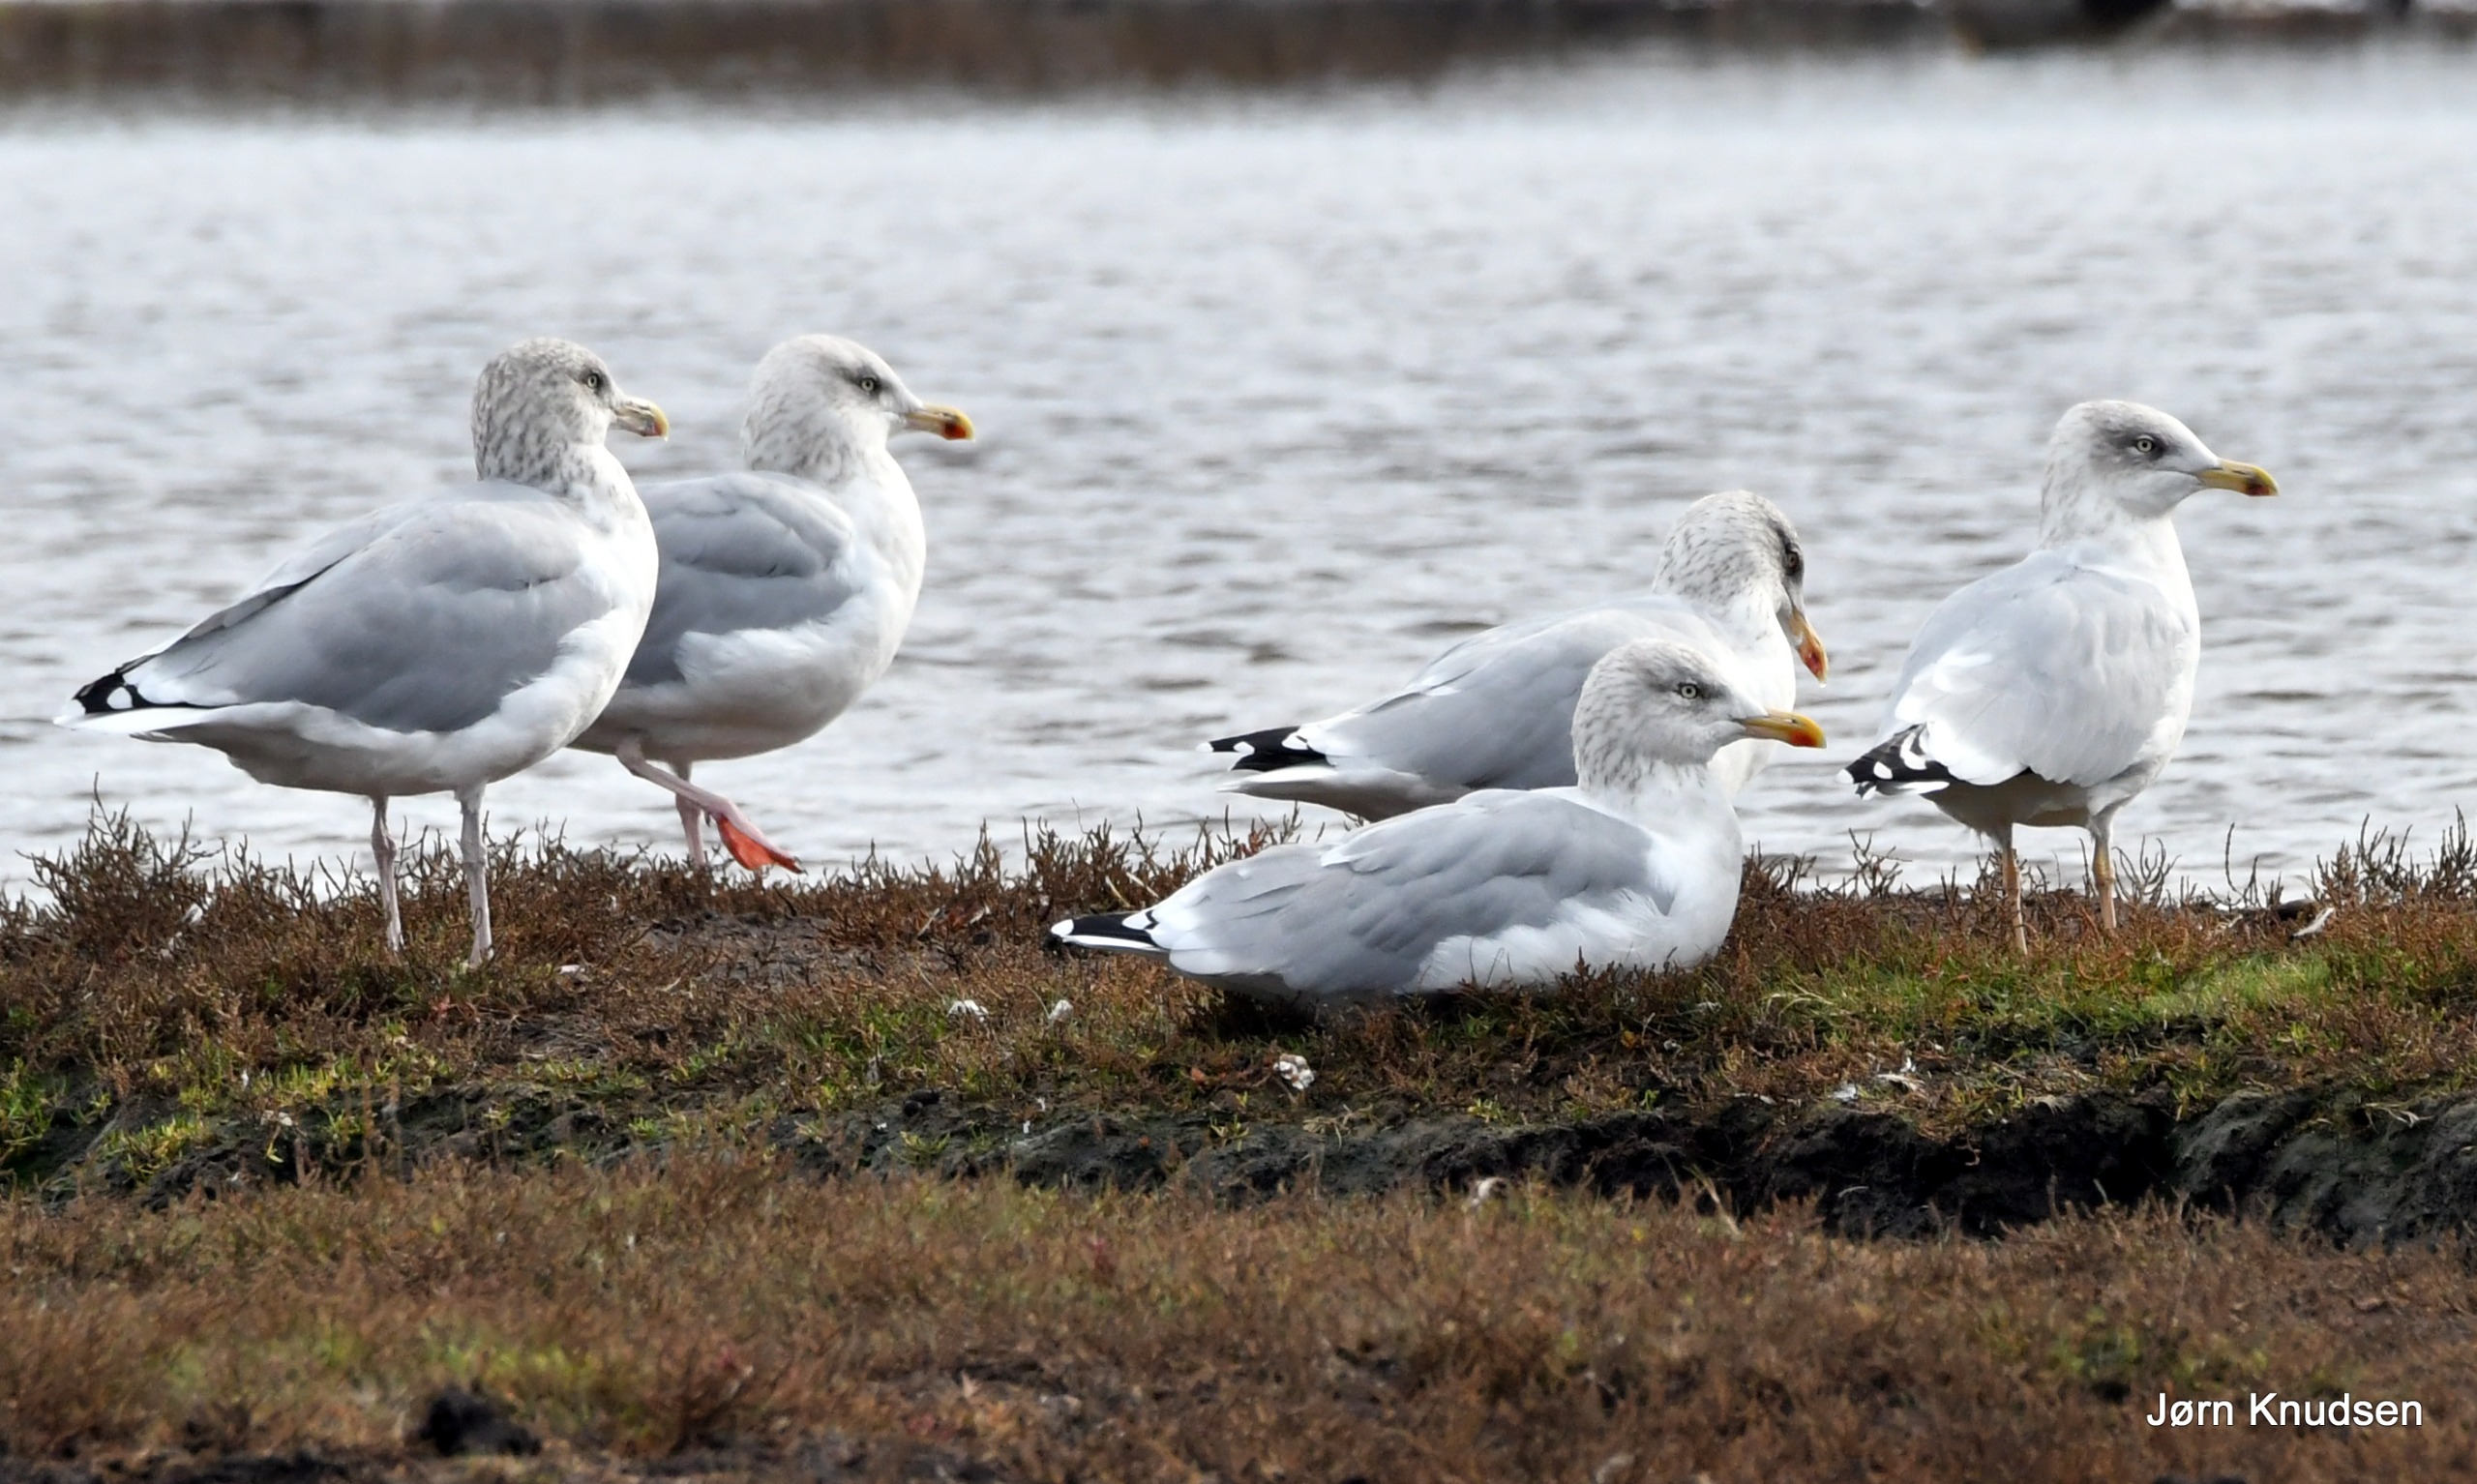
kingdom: Animalia
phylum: Chordata
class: Aves
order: Charadriiformes
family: Laridae
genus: Larus
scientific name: Larus argentatus
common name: Sølvmåge
